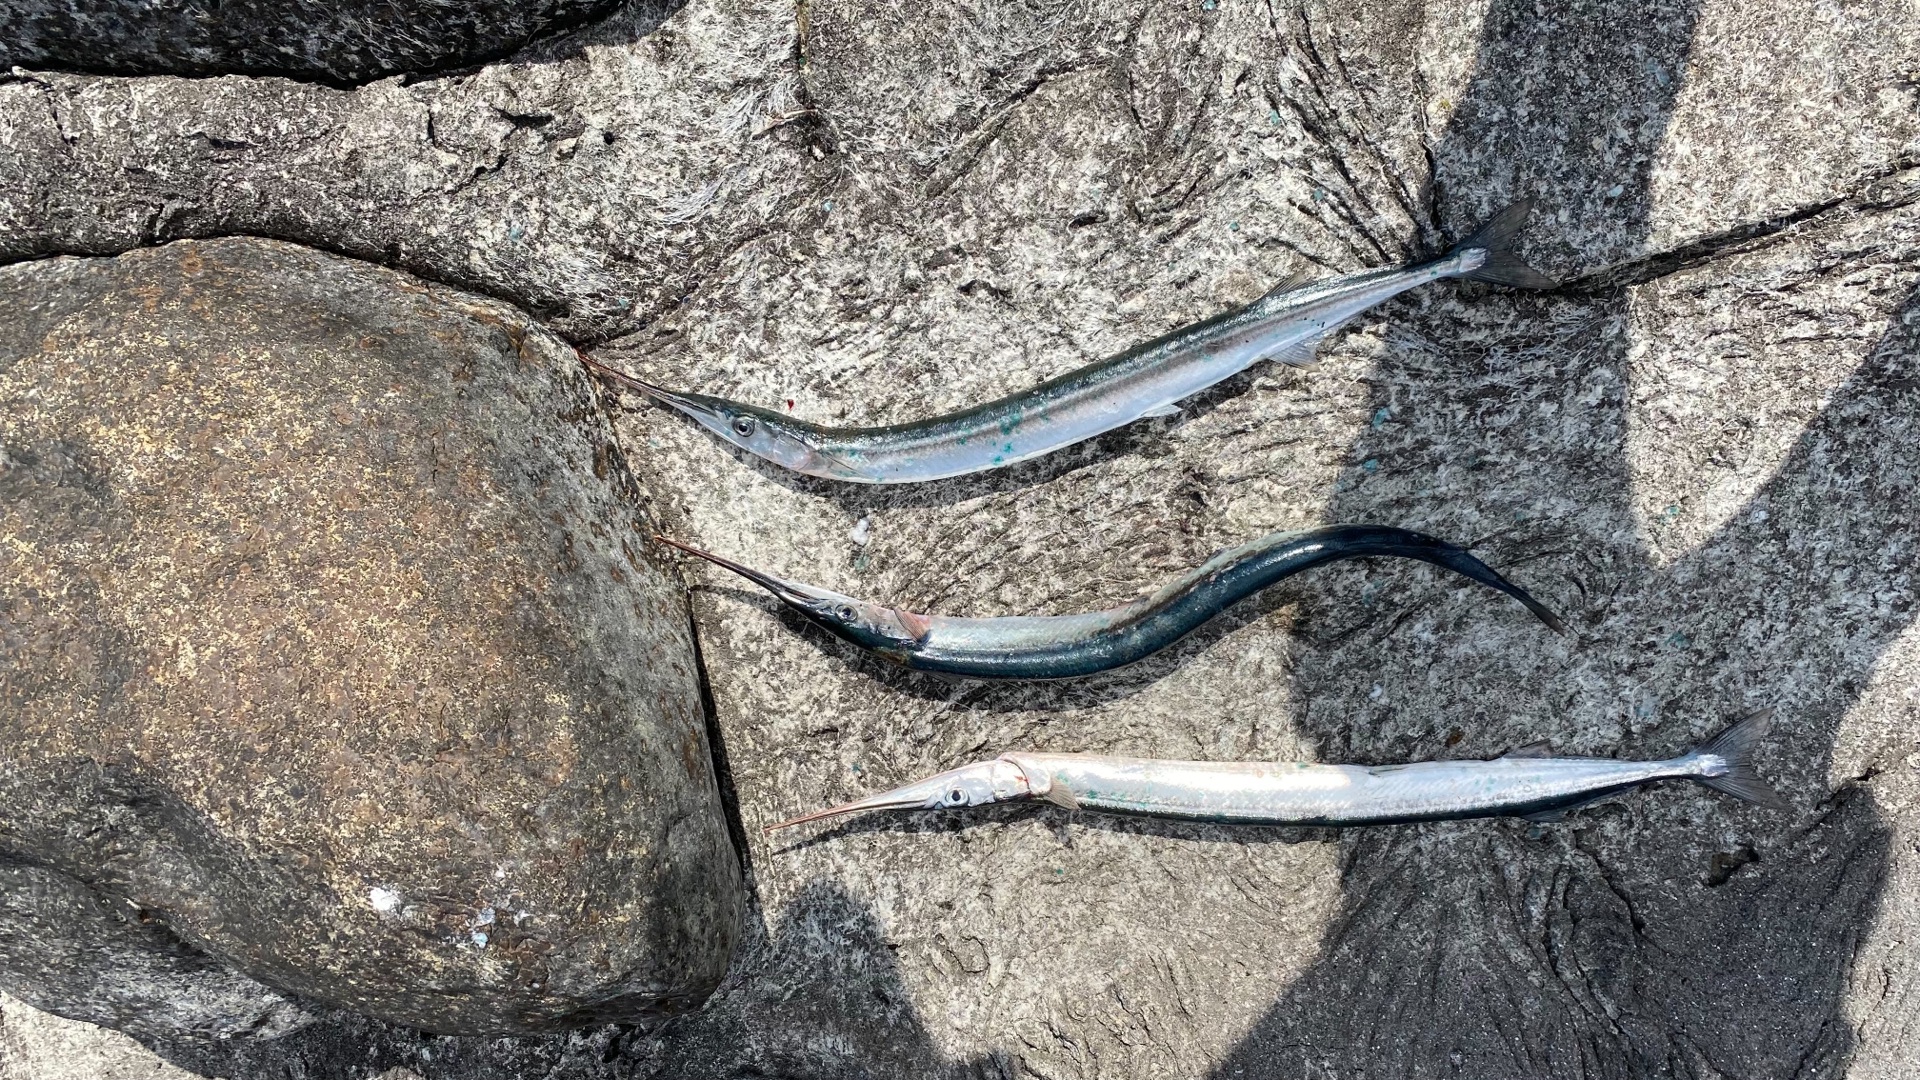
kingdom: Animalia
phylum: Chordata
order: Beloniformes
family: Belonidae
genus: Belone
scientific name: Belone belone
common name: Hornfisk
